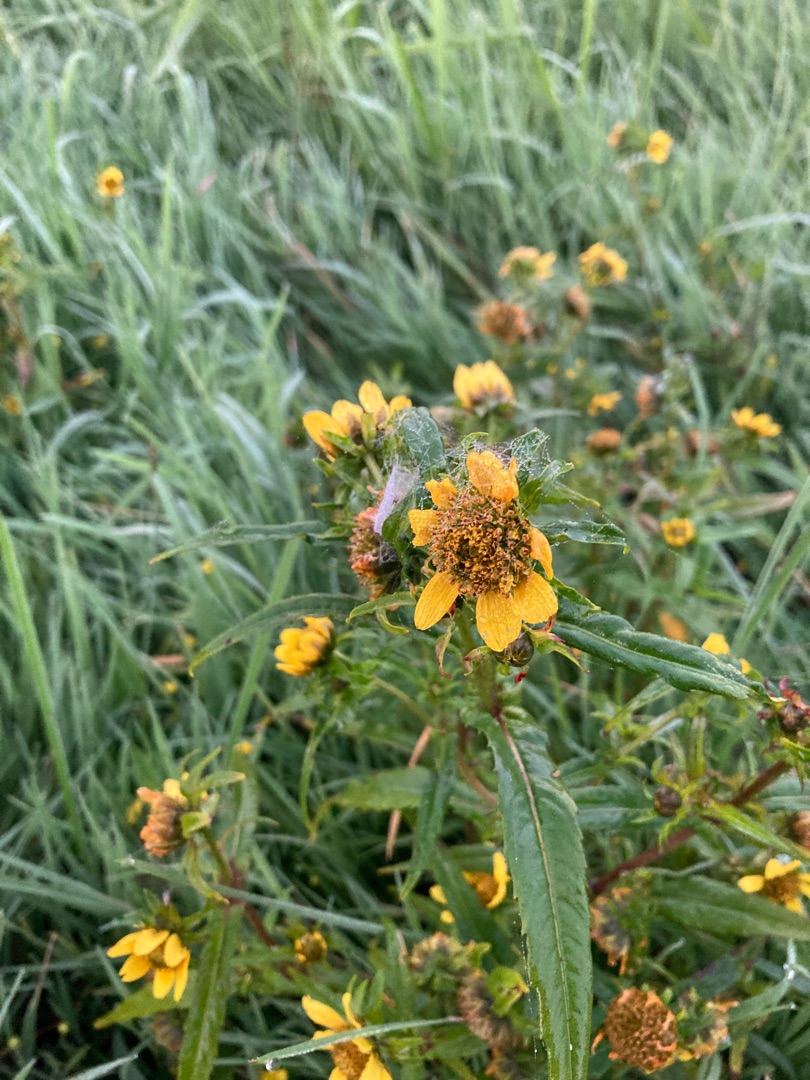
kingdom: Plantae
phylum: Tracheophyta
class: Magnoliopsida
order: Asterales
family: Asteraceae
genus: Bidens
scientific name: Bidens cernua
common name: Nikkende brøndsel
